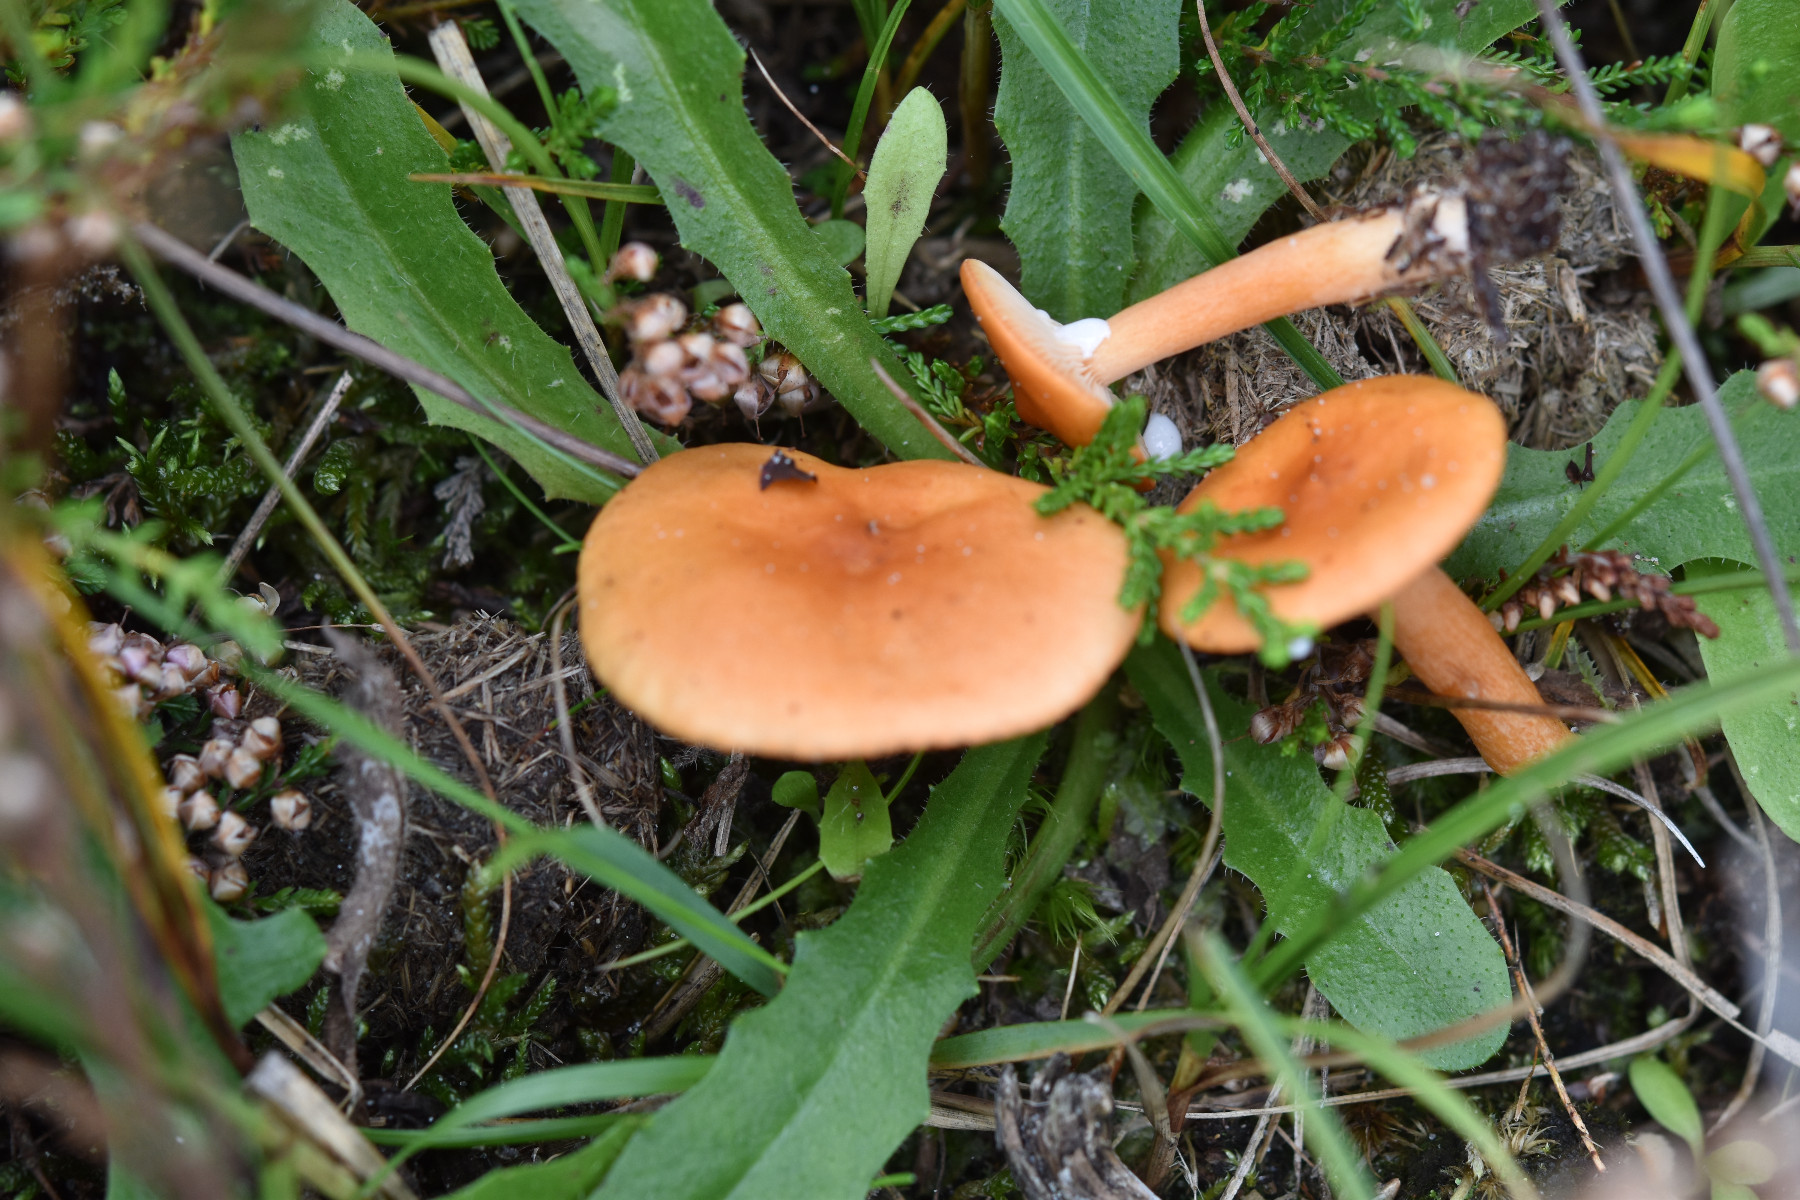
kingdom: Fungi
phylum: Basidiomycota
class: Agaricomycetes
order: Russulales
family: Russulaceae
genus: Lactarius
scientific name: Lactarius aurantiacus
